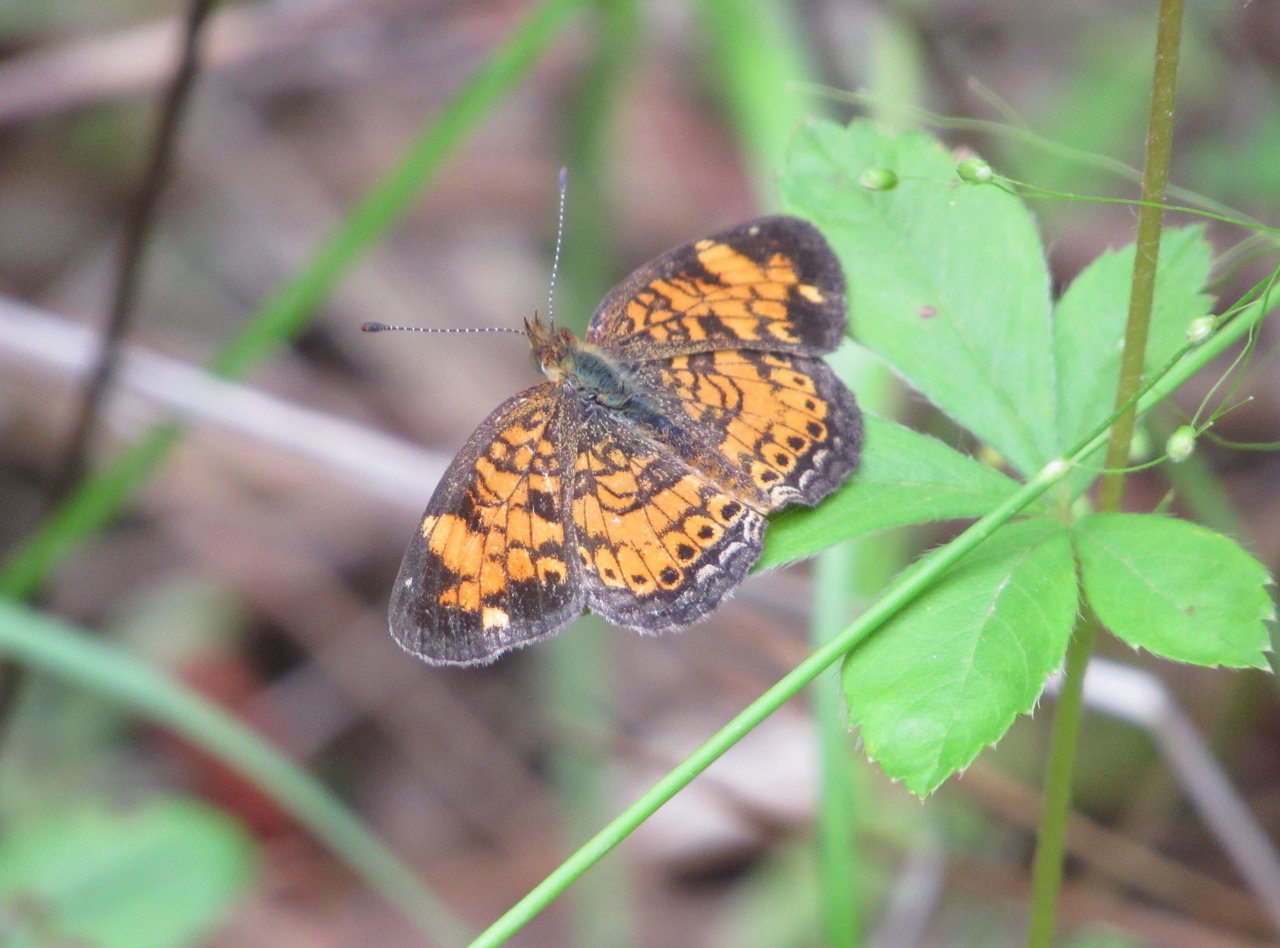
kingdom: Animalia
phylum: Arthropoda
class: Insecta
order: Lepidoptera
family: Nymphalidae
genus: Phyciodes
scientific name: Phyciodes tharos
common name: Pearl Crescent
